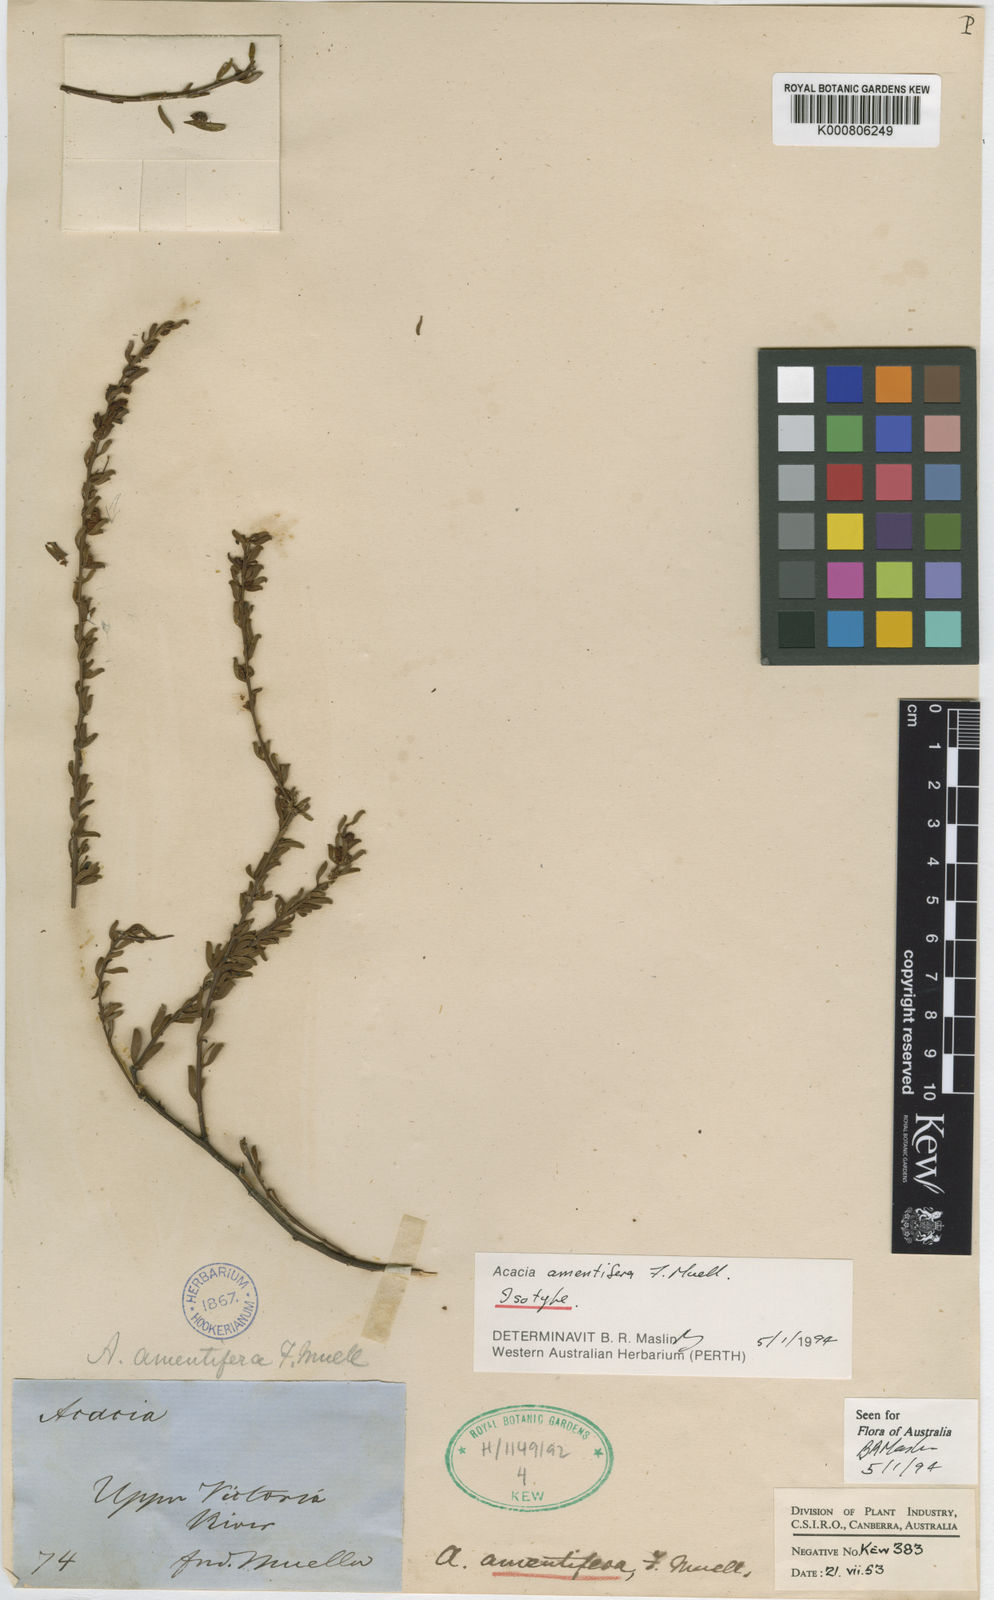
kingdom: Plantae
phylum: Tracheophyta
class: Magnoliopsida
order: Fabales
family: Fabaceae
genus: Acacia
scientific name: Acacia amentifera
